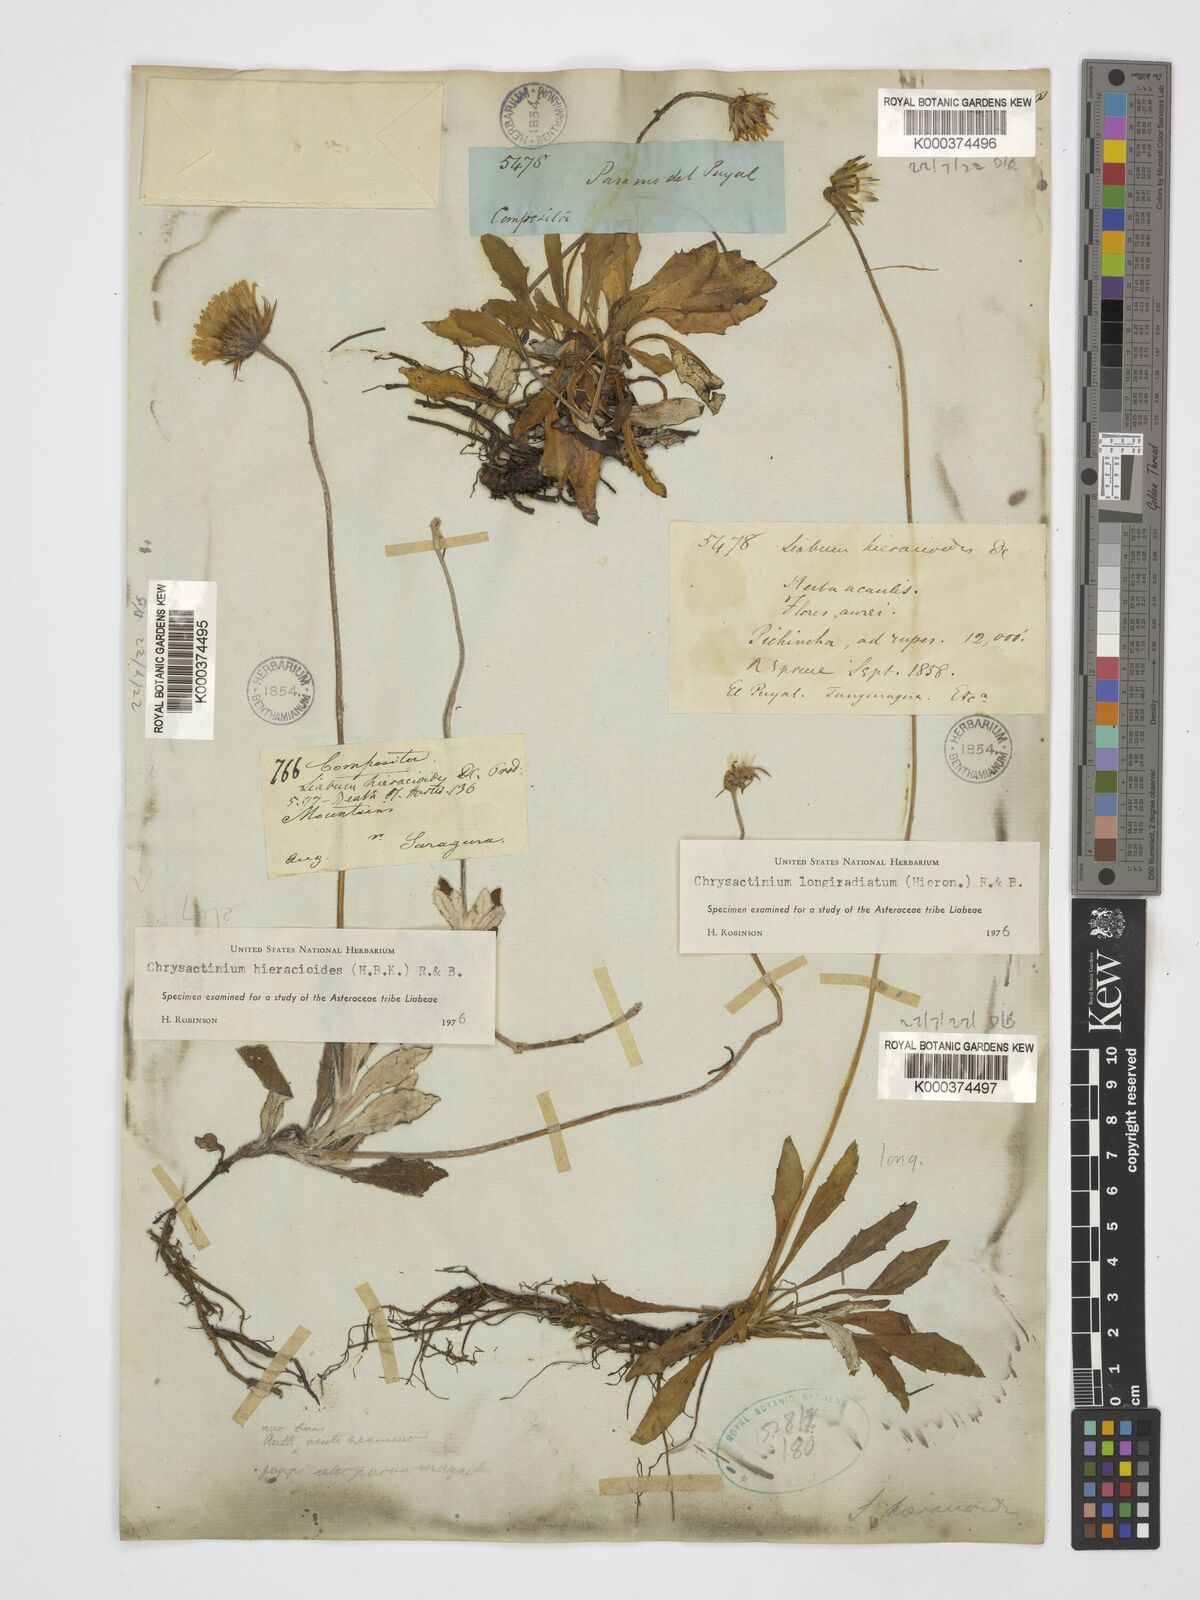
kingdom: Plantae
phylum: Tracheophyta
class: Magnoliopsida
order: Asterales
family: Asteraceae
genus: Chrysactinium
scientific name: Chrysactinium acaule
